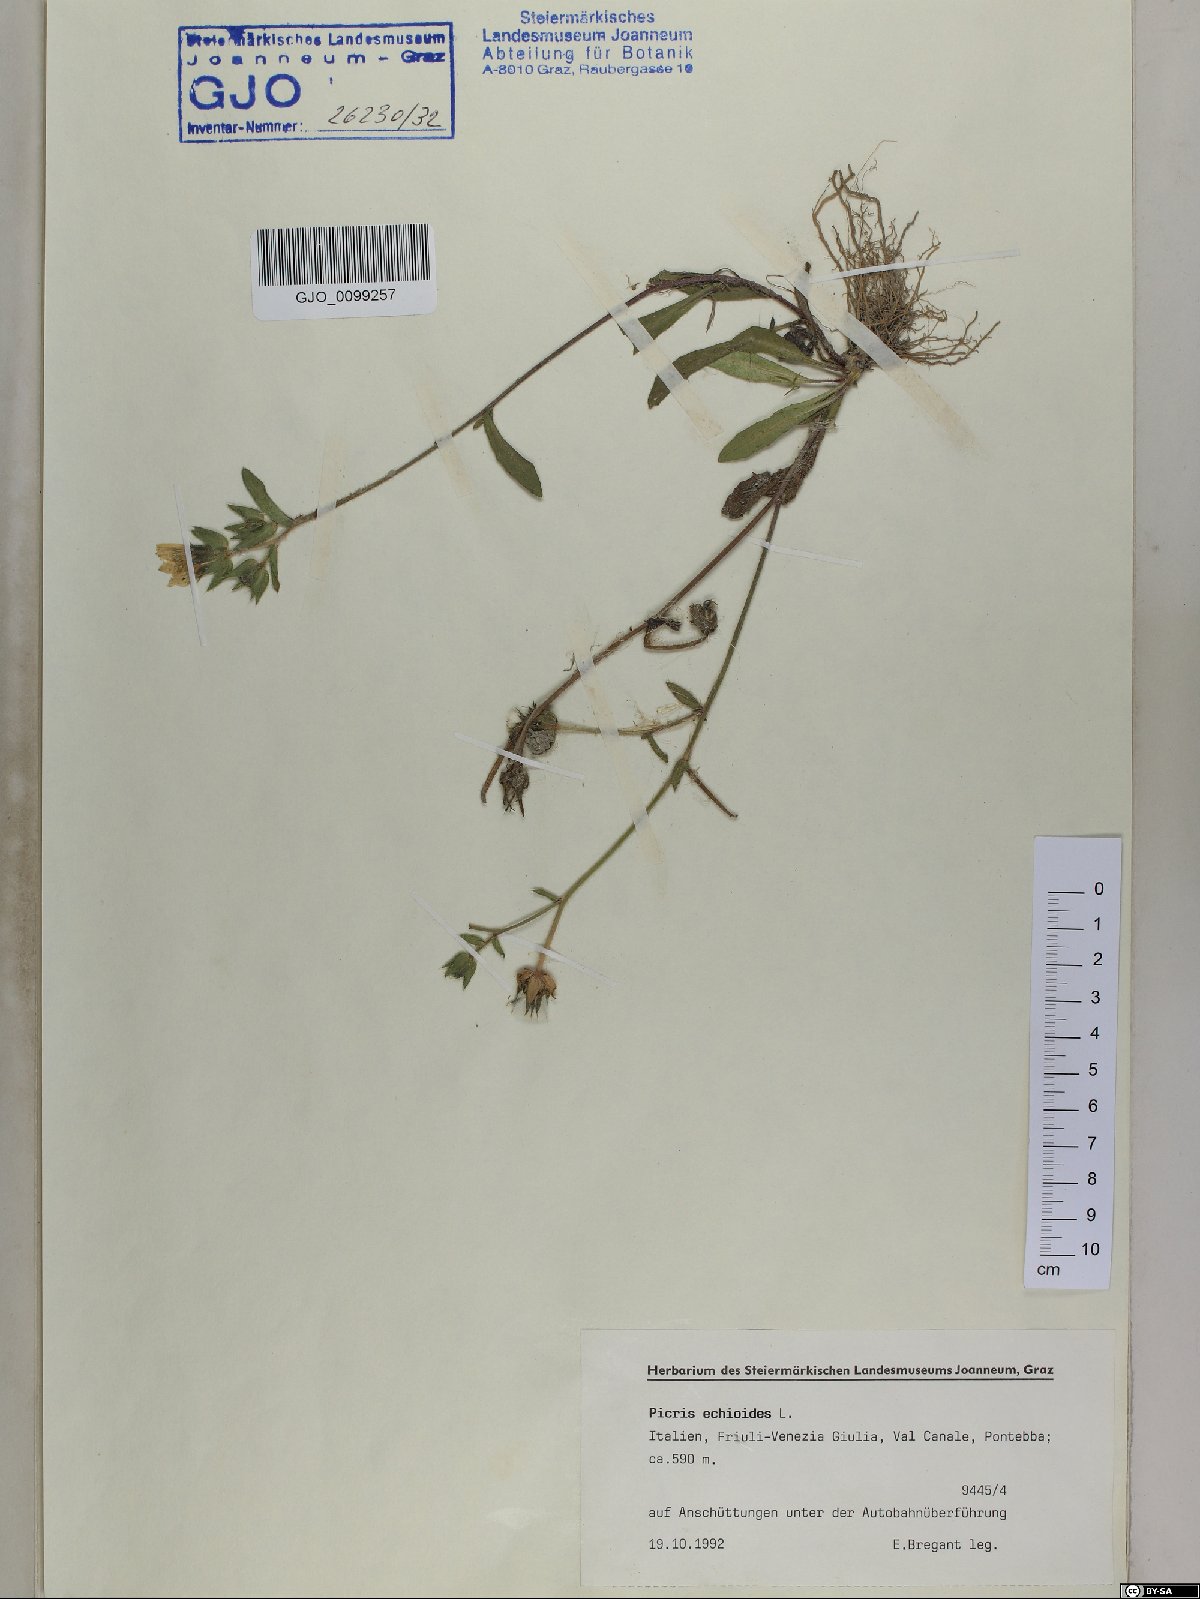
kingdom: Plantae
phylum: Tracheophyta
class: Magnoliopsida
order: Asterales
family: Asteraceae
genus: Helminthotheca
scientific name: Helminthotheca echioides
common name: Ox-tongue
